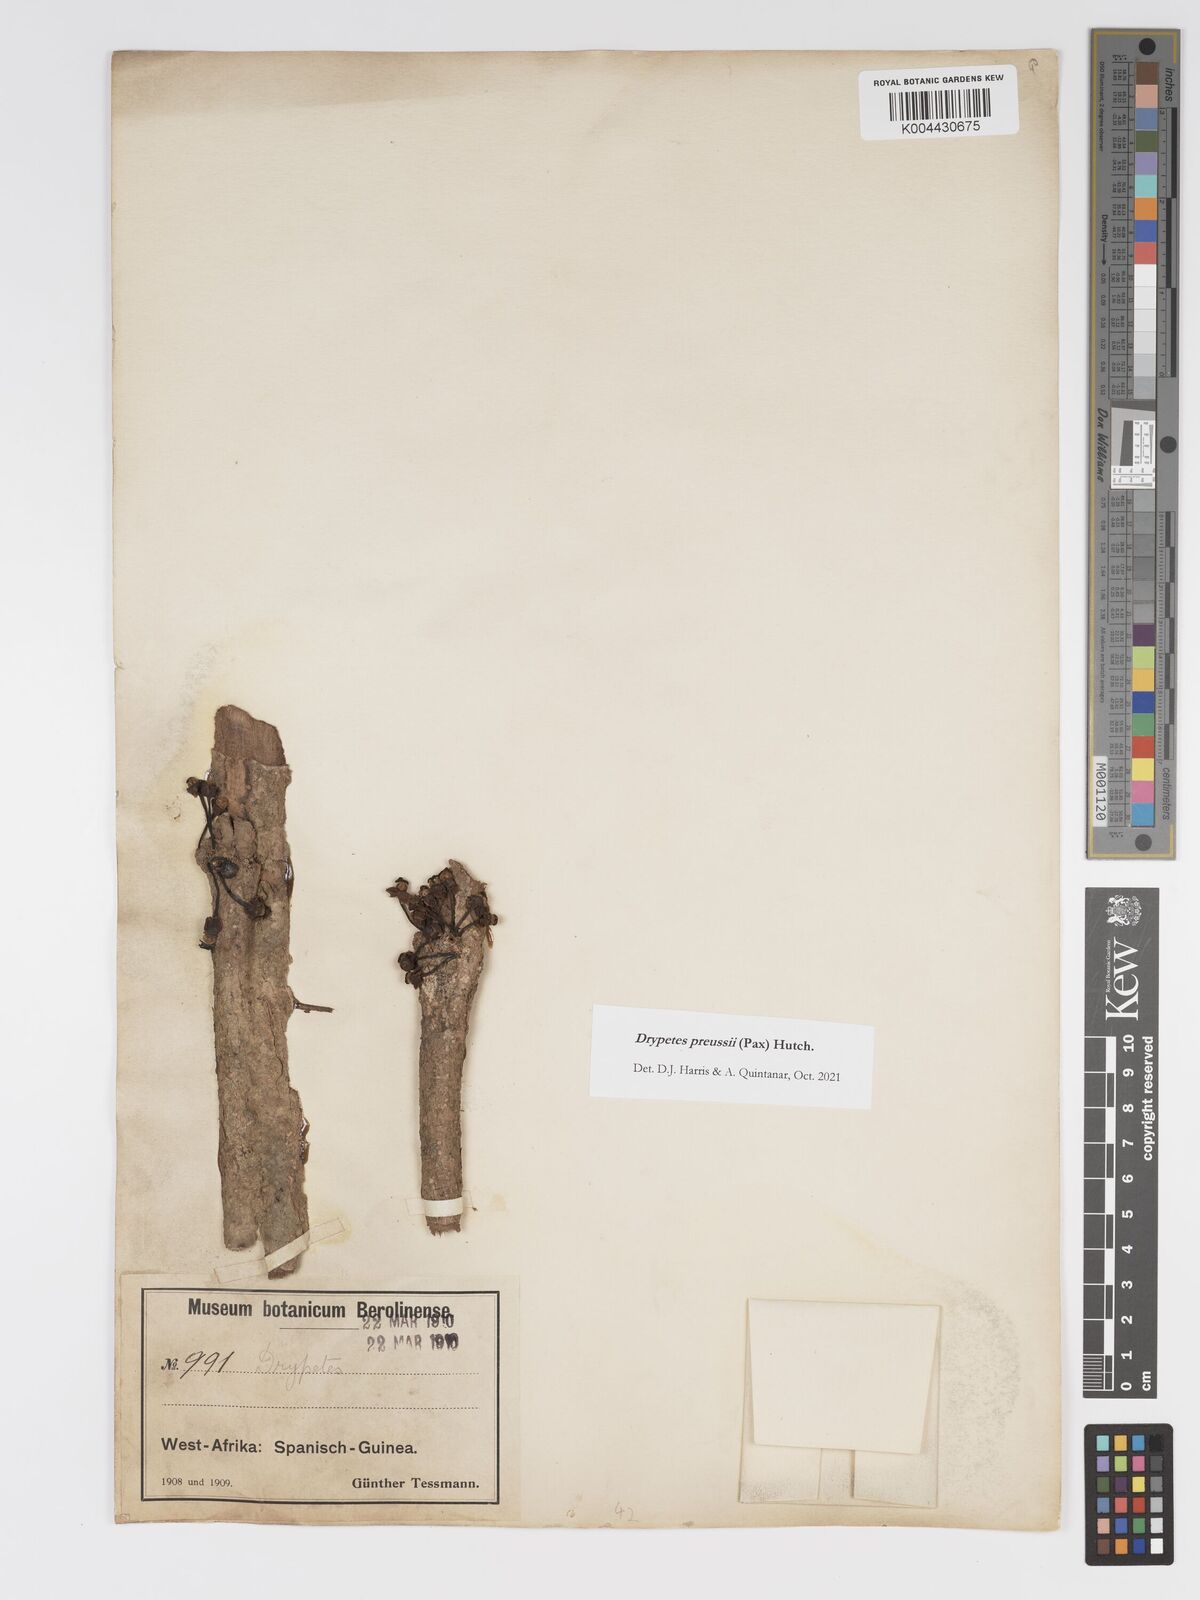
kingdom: Plantae
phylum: Tracheophyta
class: Magnoliopsida
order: Malpighiales
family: Putranjivaceae
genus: Drypetes
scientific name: Drypetes preussii
